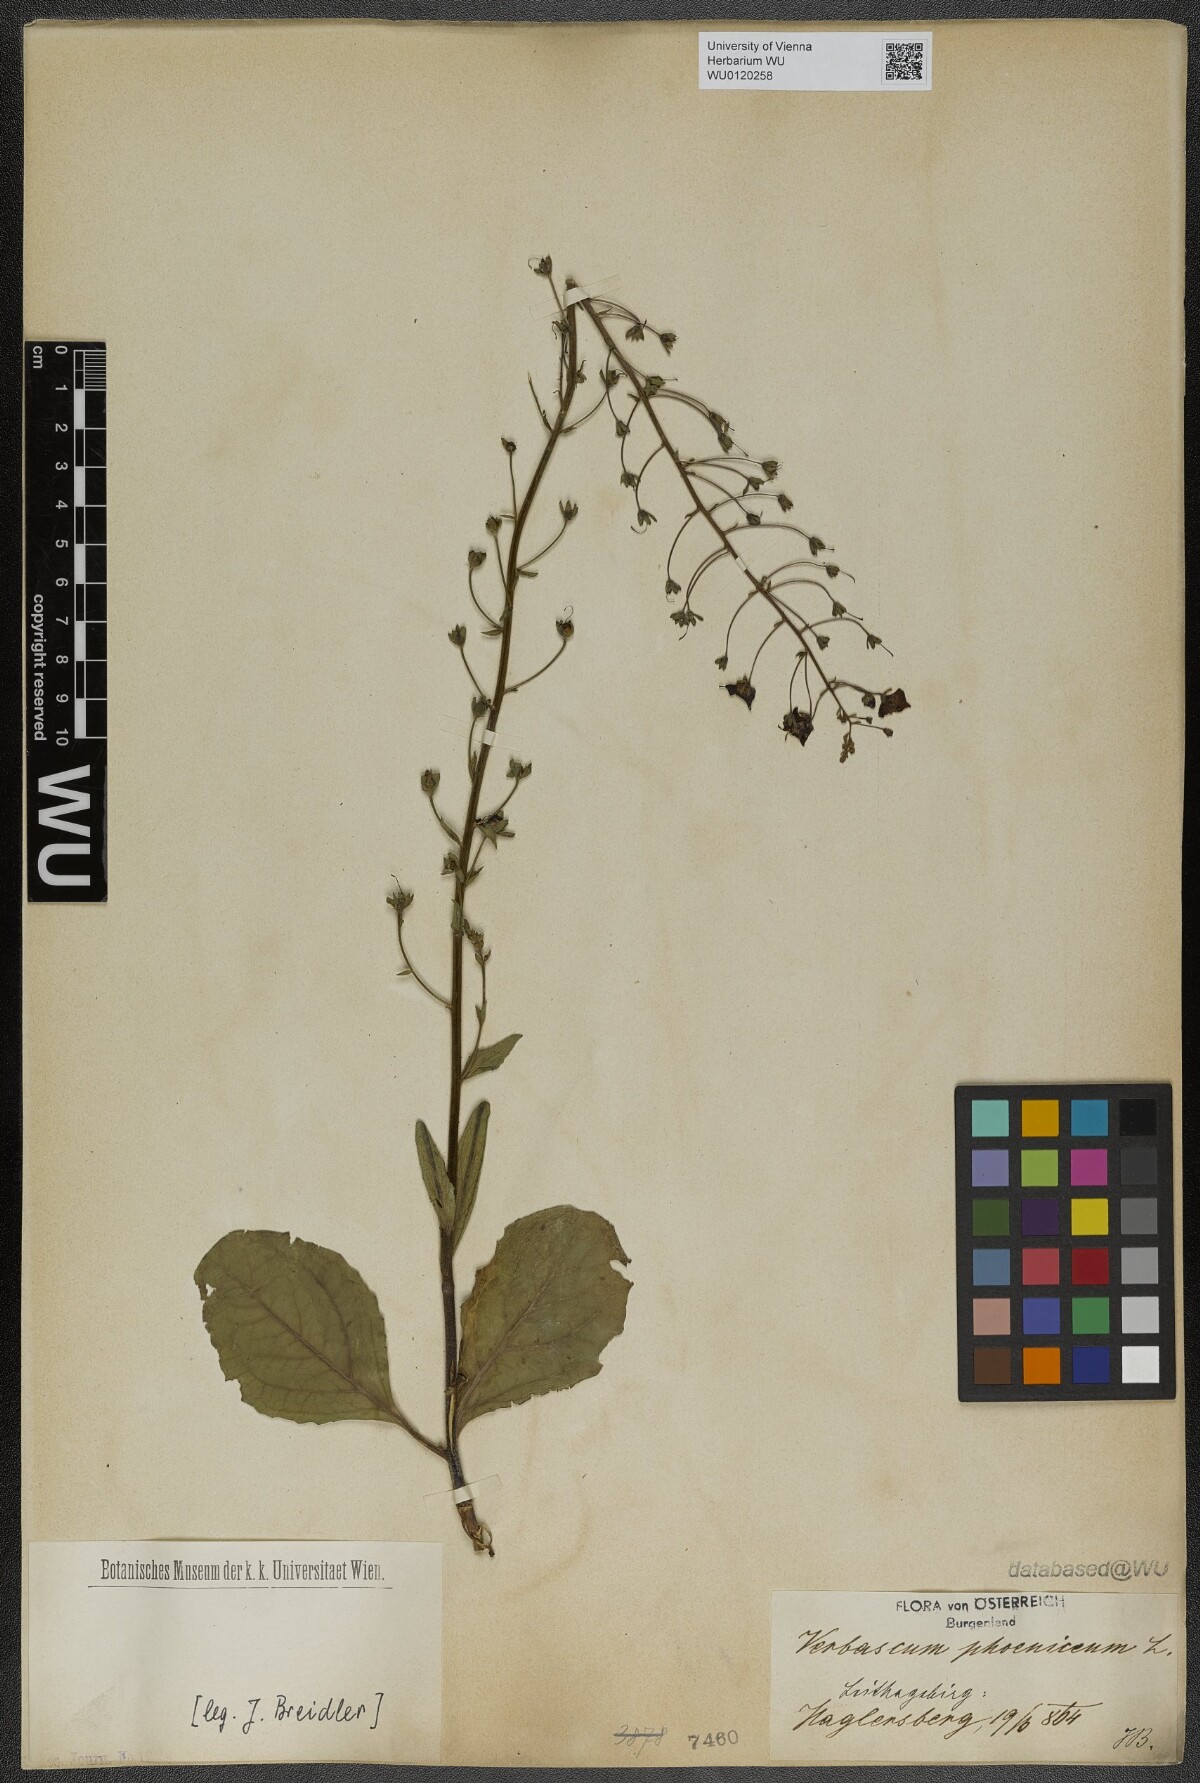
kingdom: Plantae
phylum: Tracheophyta
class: Magnoliopsida
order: Lamiales
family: Scrophulariaceae
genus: Verbascum
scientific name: Verbascum phoeniceum
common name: Purple mullein
